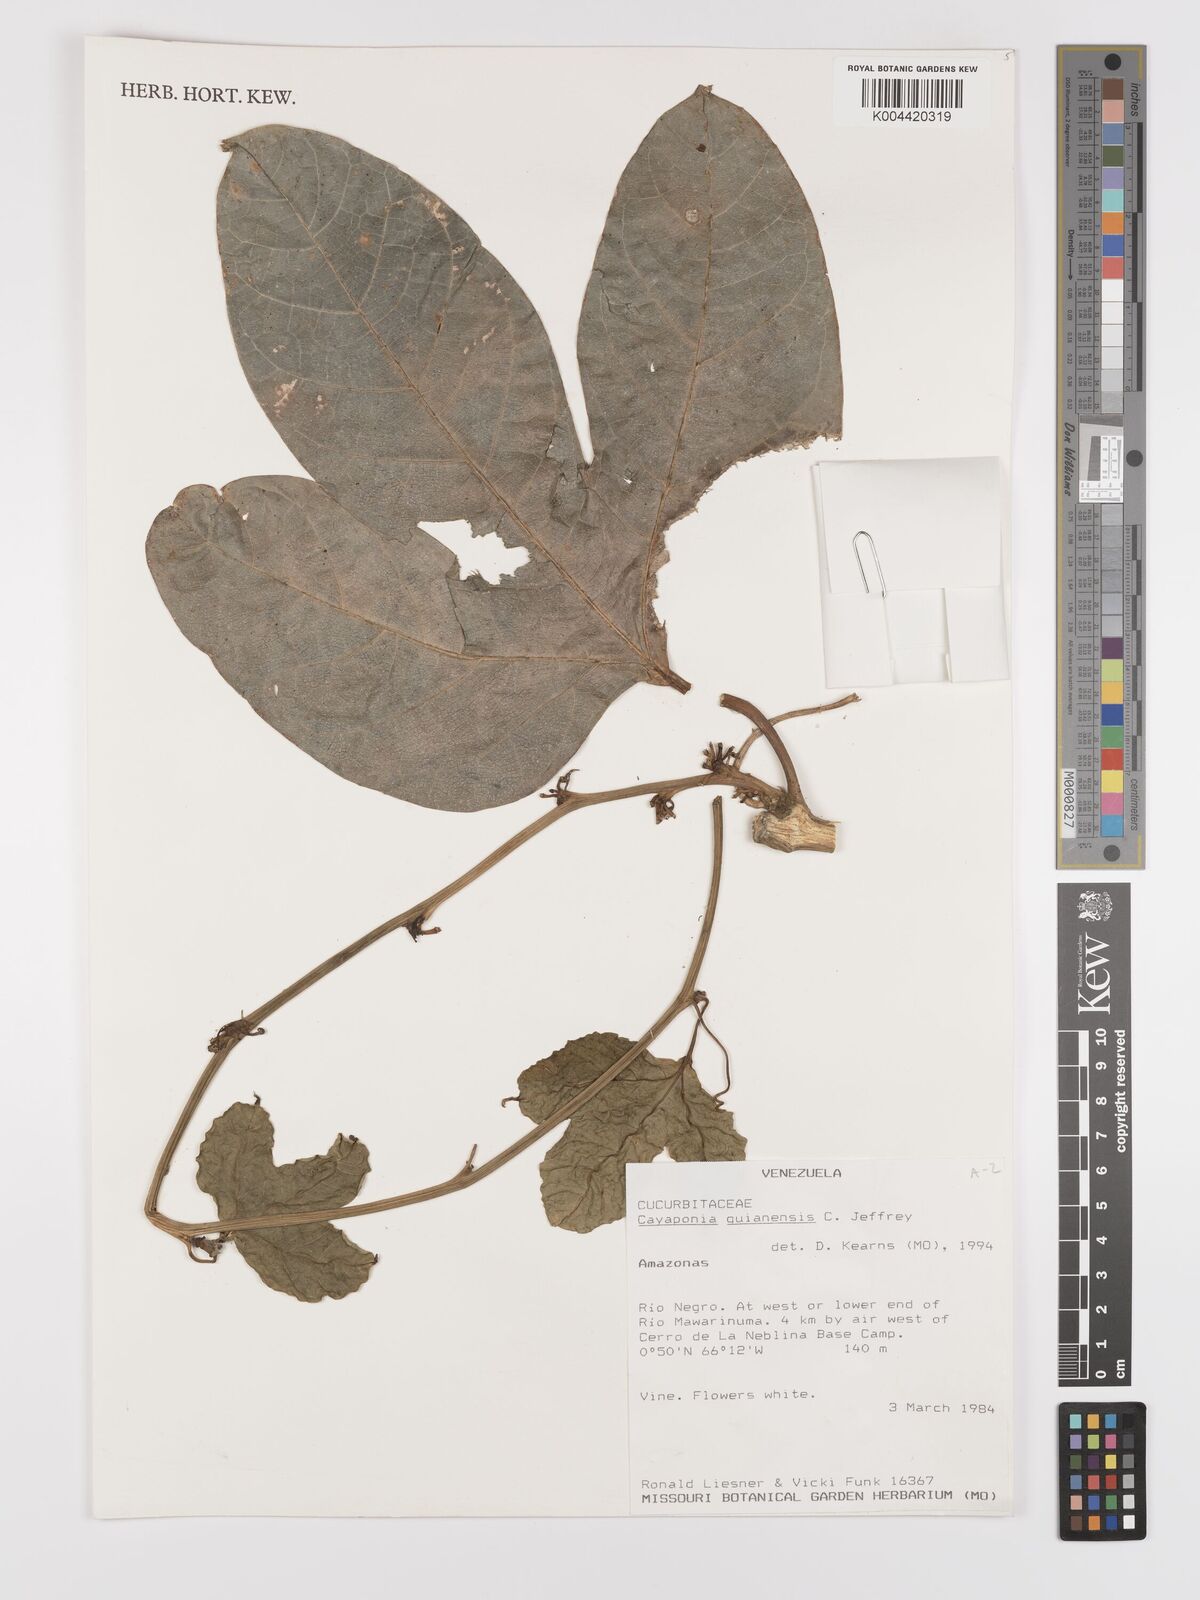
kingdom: Plantae
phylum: Tracheophyta
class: Magnoliopsida
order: Cucurbitales
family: Cucurbitaceae
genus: Cayaponia
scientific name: Cayaponia guianensis
